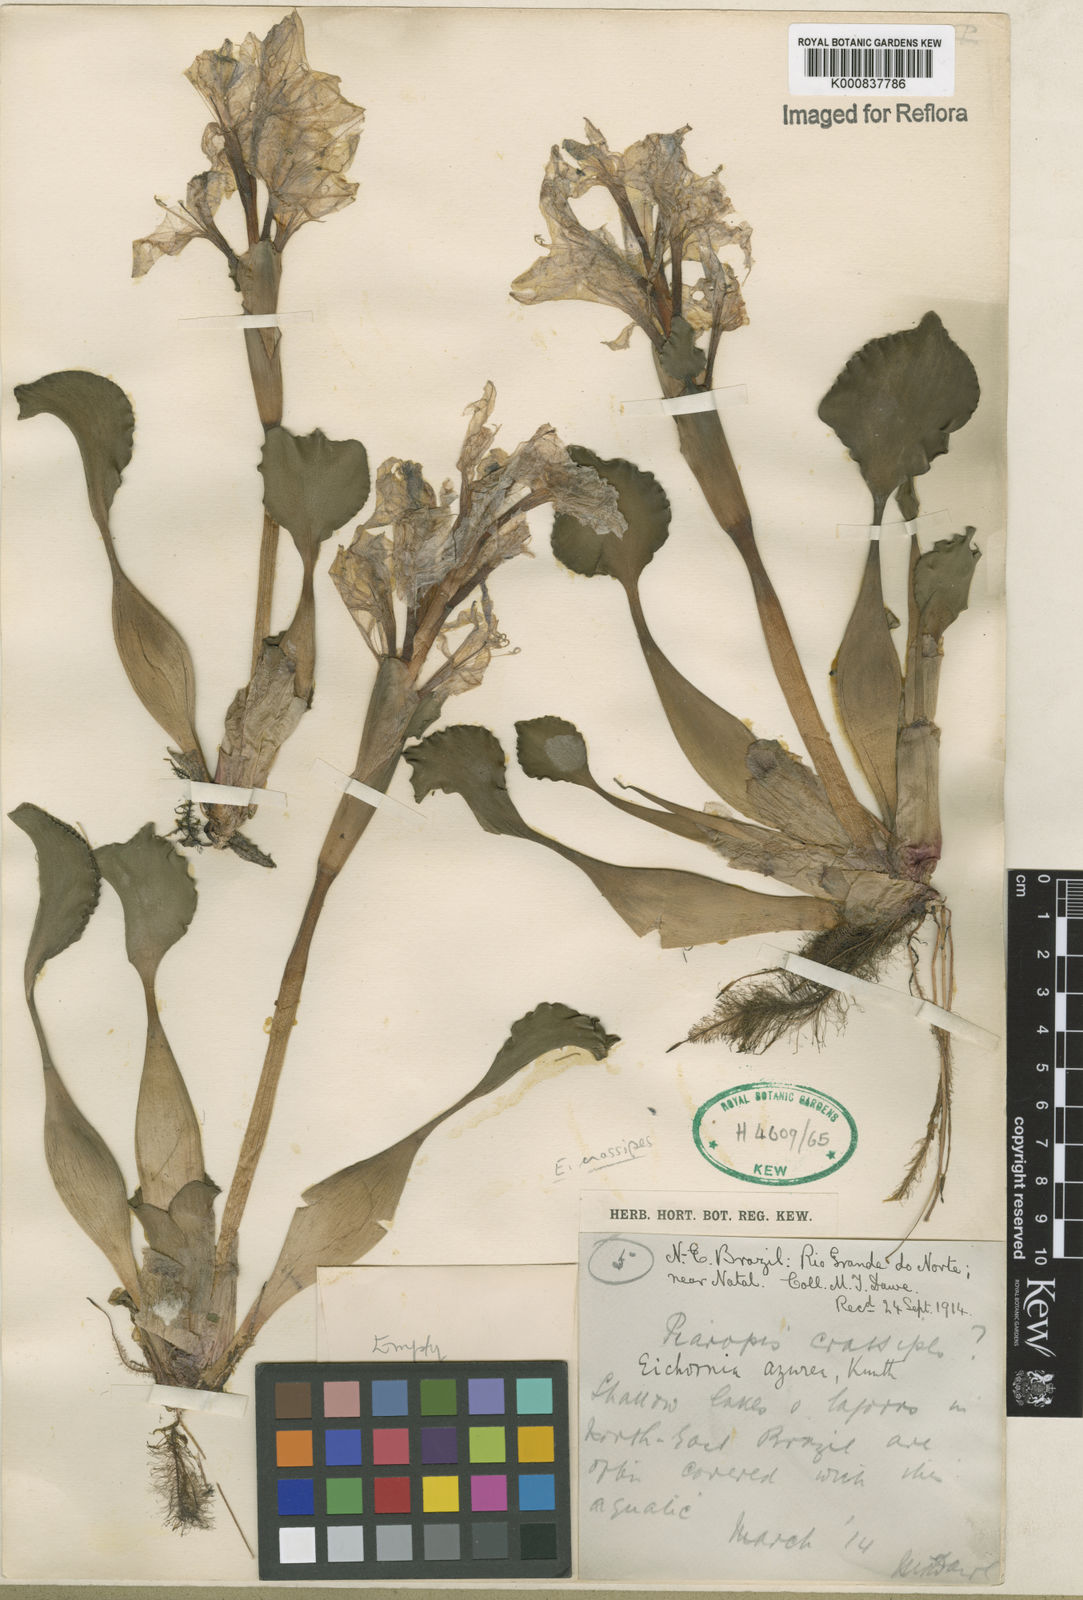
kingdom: Plantae
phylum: Tracheophyta
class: Liliopsida
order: Commelinales
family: Pontederiaceae
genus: Pontederia
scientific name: Pontederia crassipes
